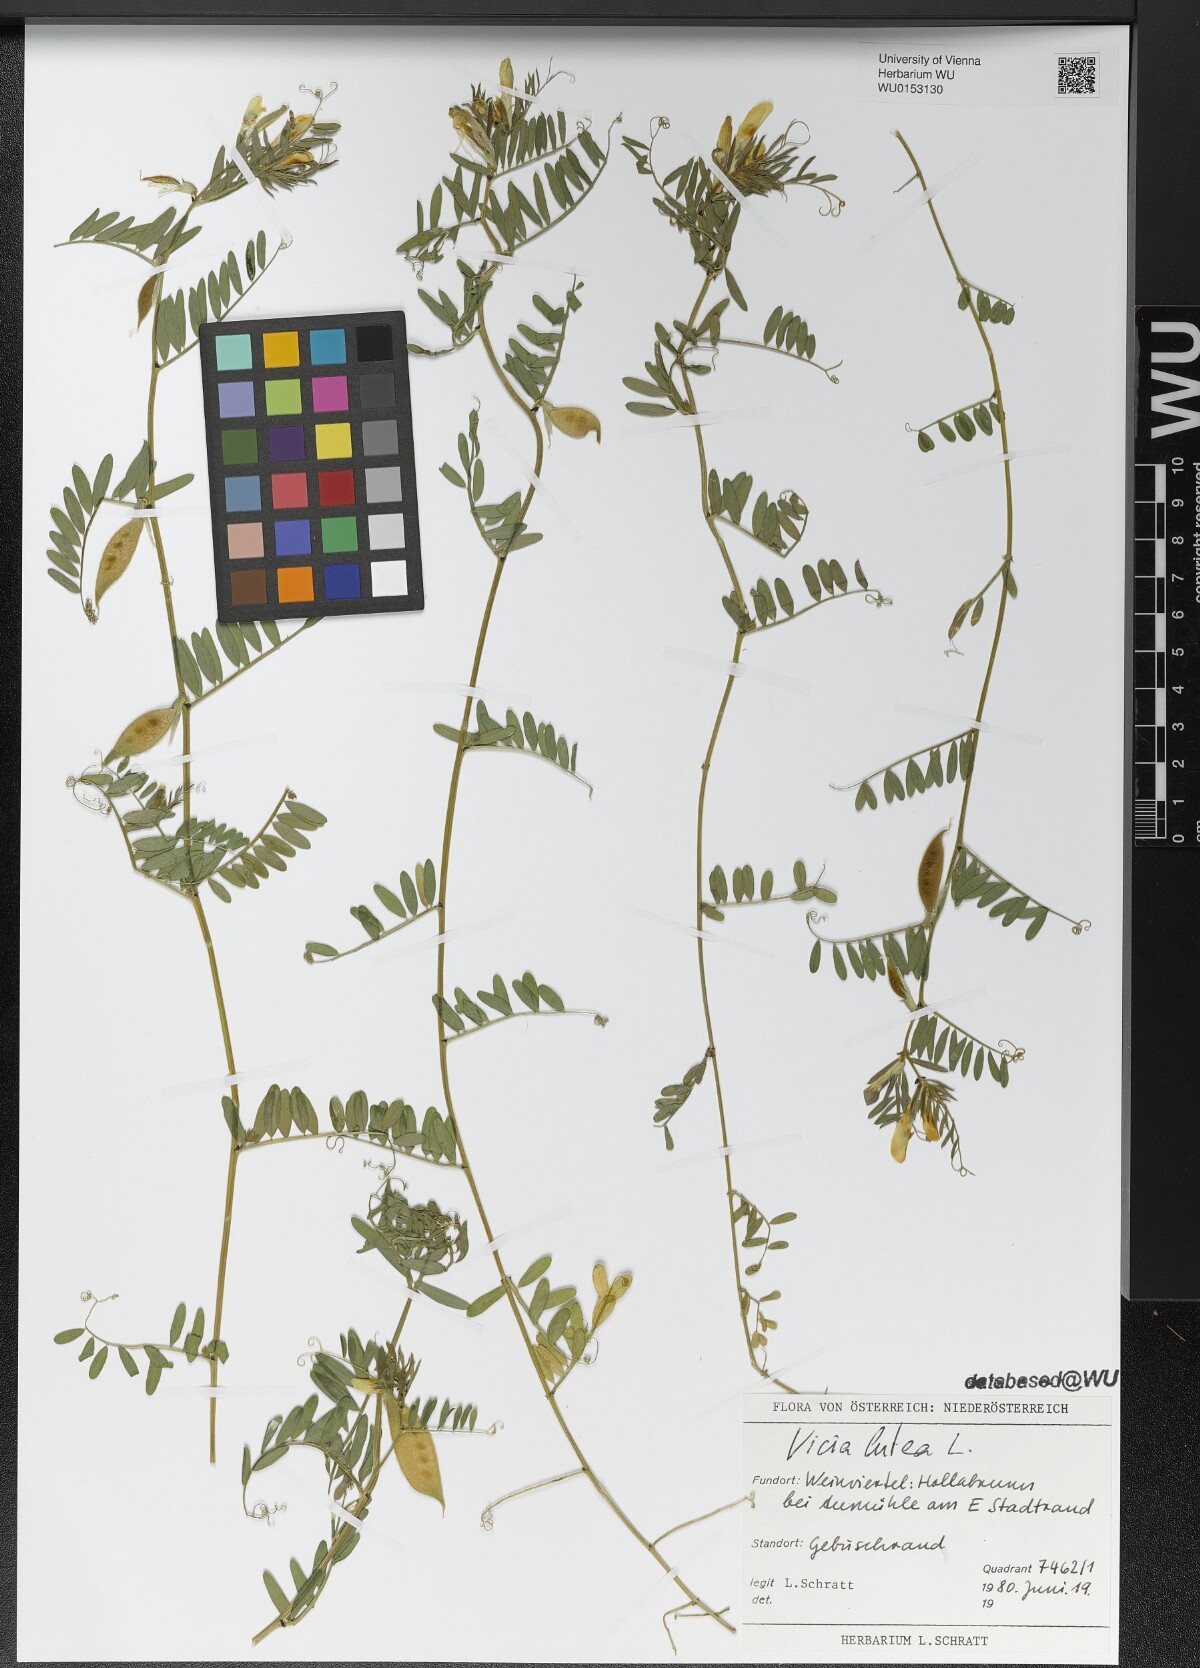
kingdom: Plantae
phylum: Tracheophyta
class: Magnoliopsida
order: Fabales
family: Fabaceae
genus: Vicia
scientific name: Vicia lutea
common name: Smooth yellow vetch
